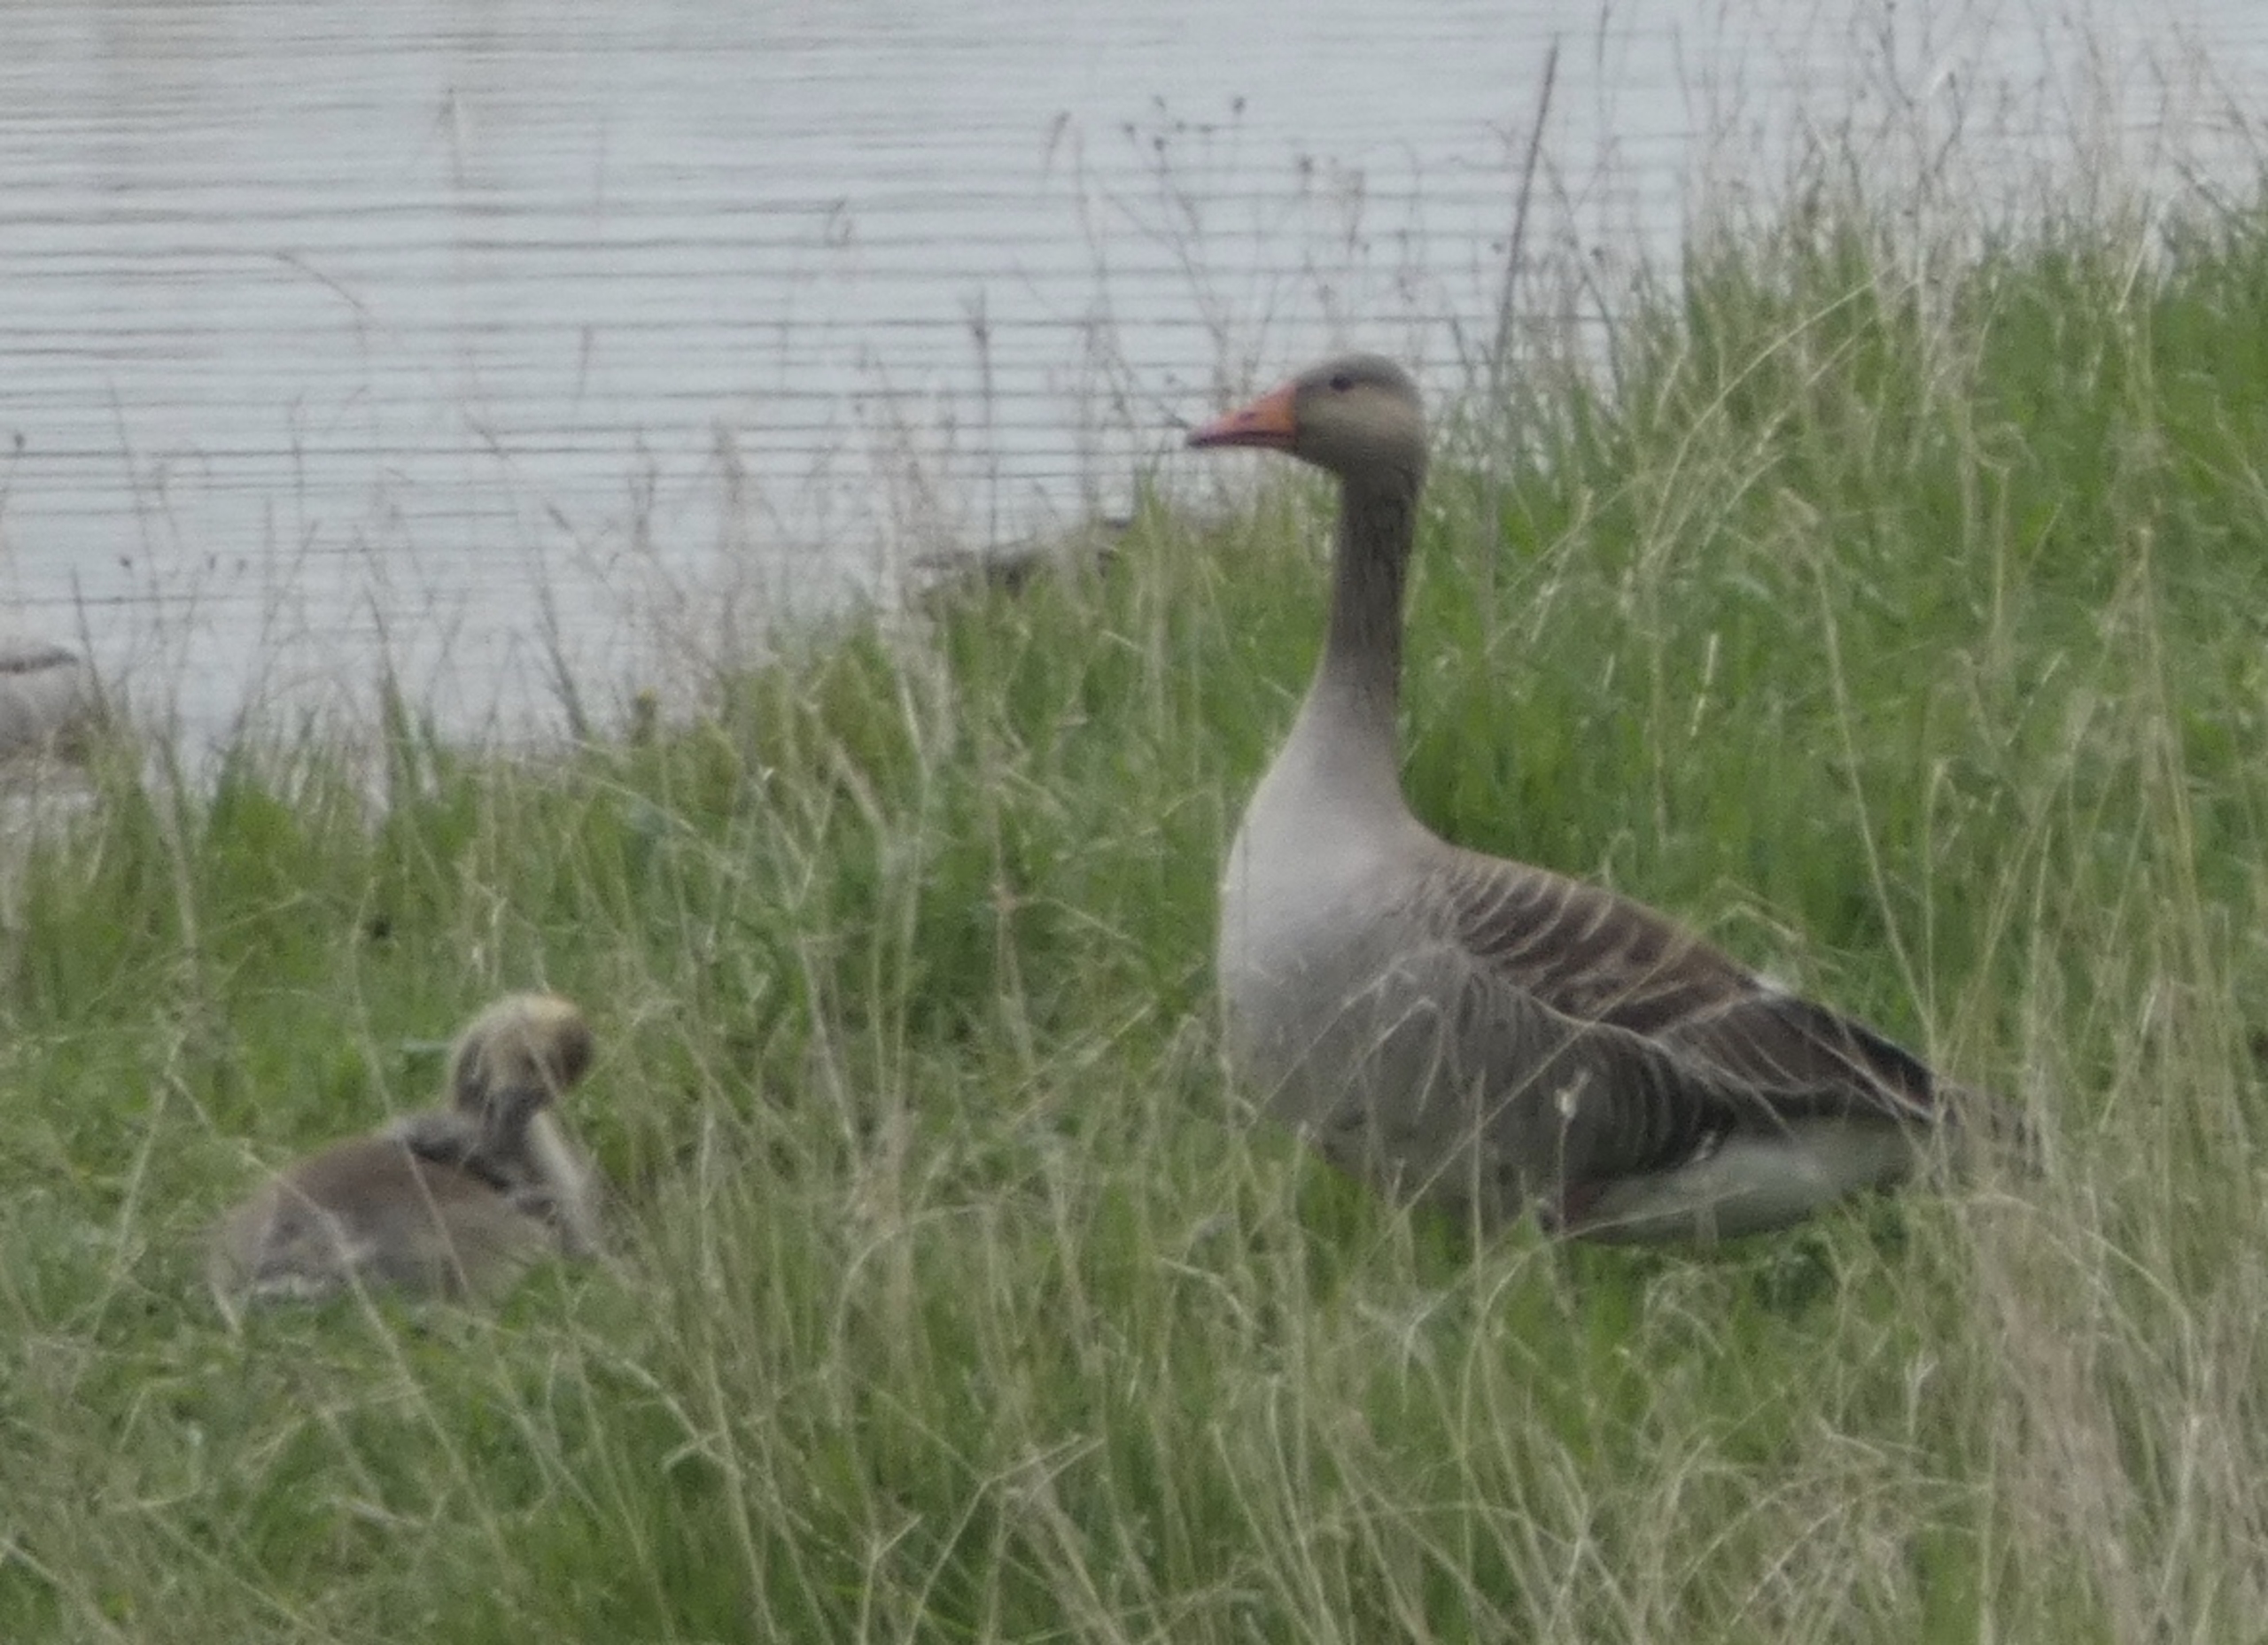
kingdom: Animalia
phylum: Chordata
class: Aves
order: Anseriformes
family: Anatidae
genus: Anser
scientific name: Anser anser
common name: Grågås
